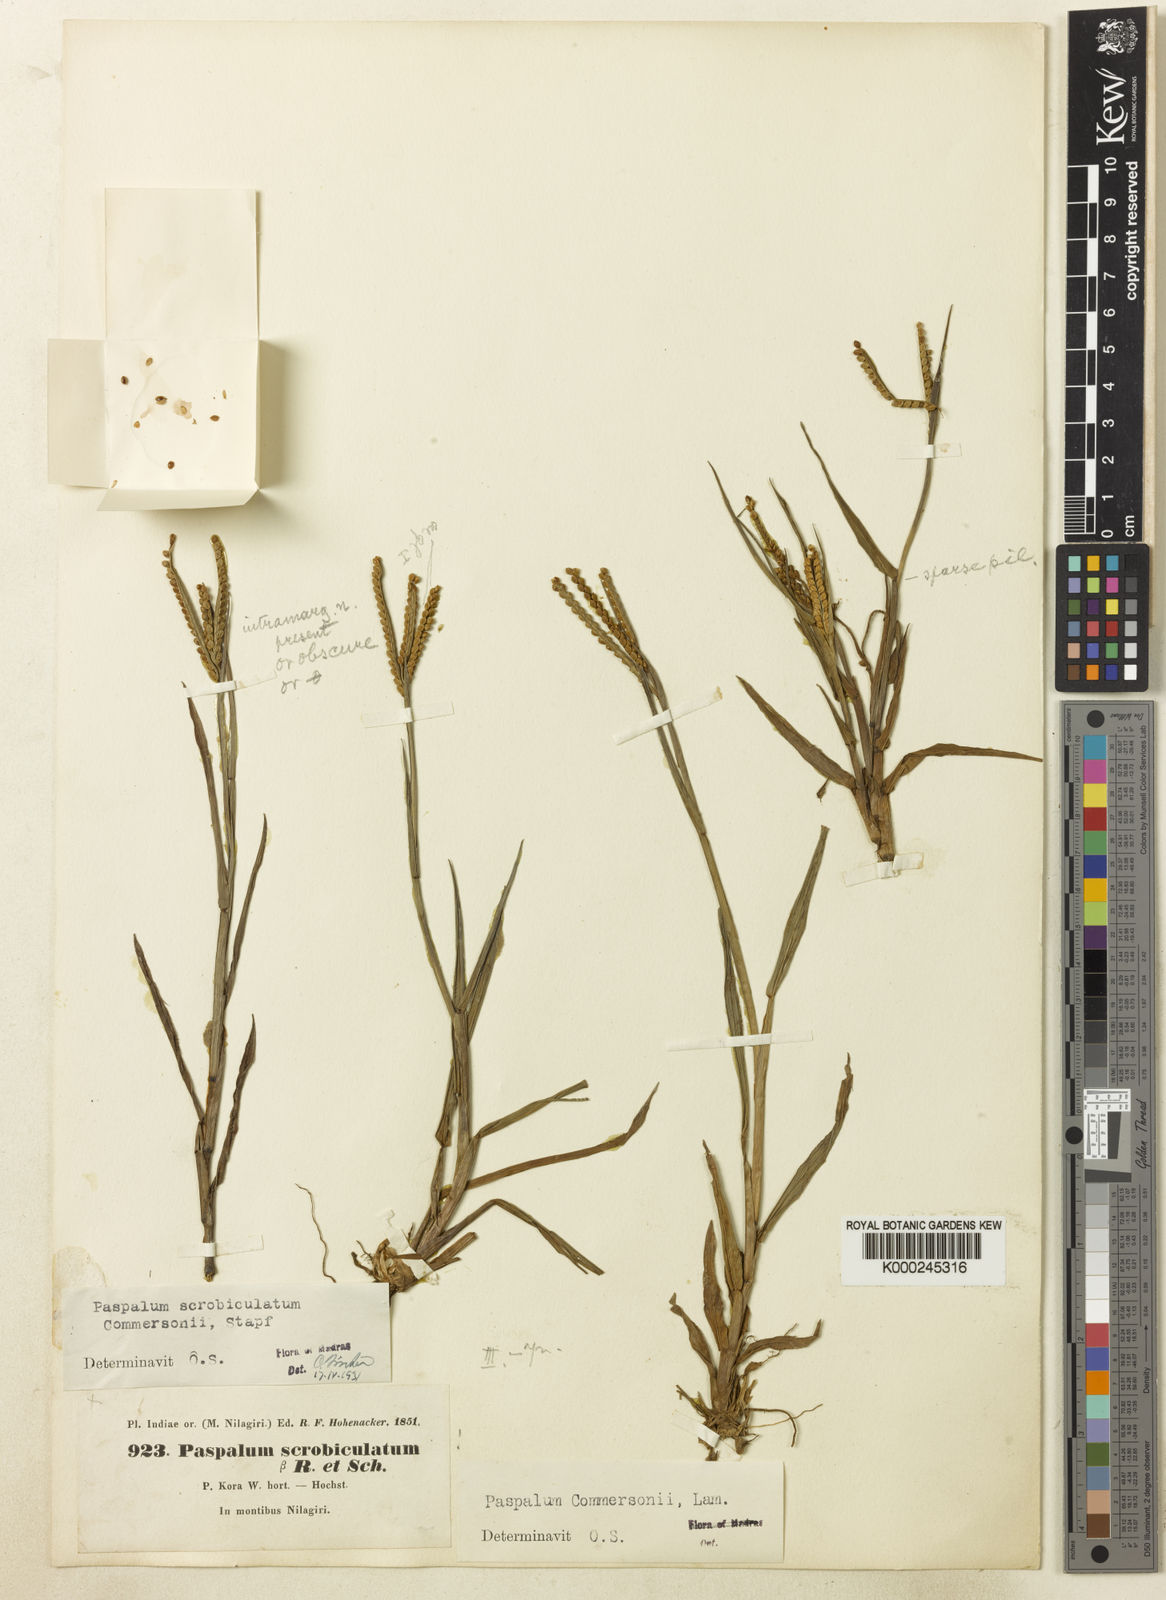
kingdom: Plantae
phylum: Tracheophyta
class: Liliopsida
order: Poales
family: Poaceae
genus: Paspalum
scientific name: Paspalum
